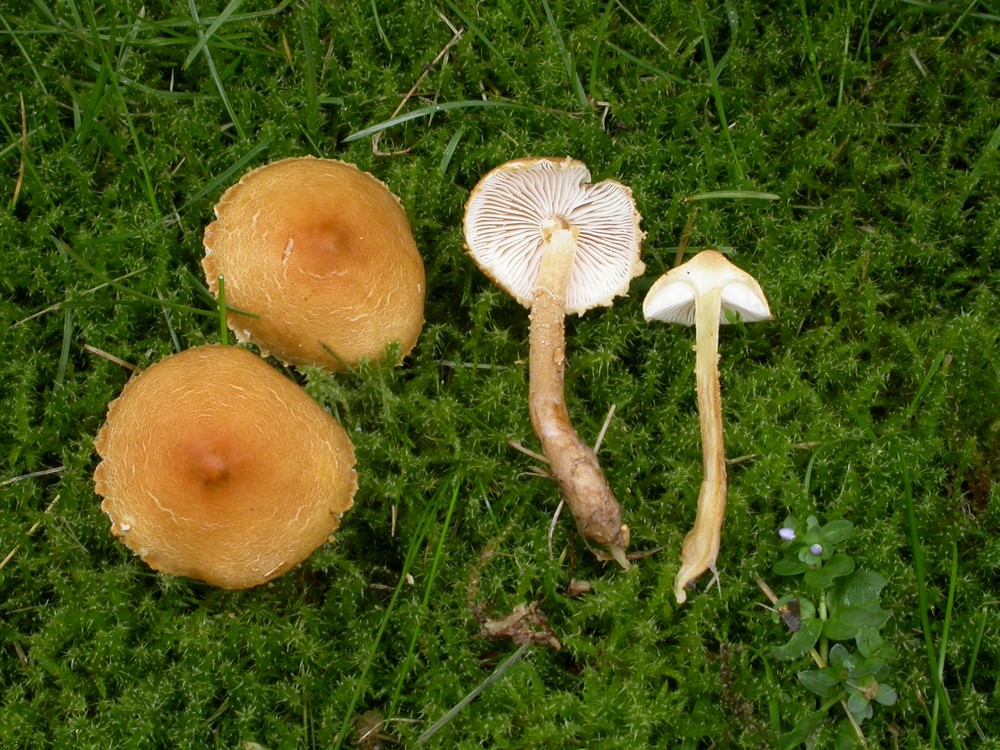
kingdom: Fungi
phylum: Basidiomycota
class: Agaricomycetes
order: Agaricales
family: Tricholomataceae
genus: Cystoderma
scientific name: Cystoderma amianthinum
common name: okkergul grynhat
